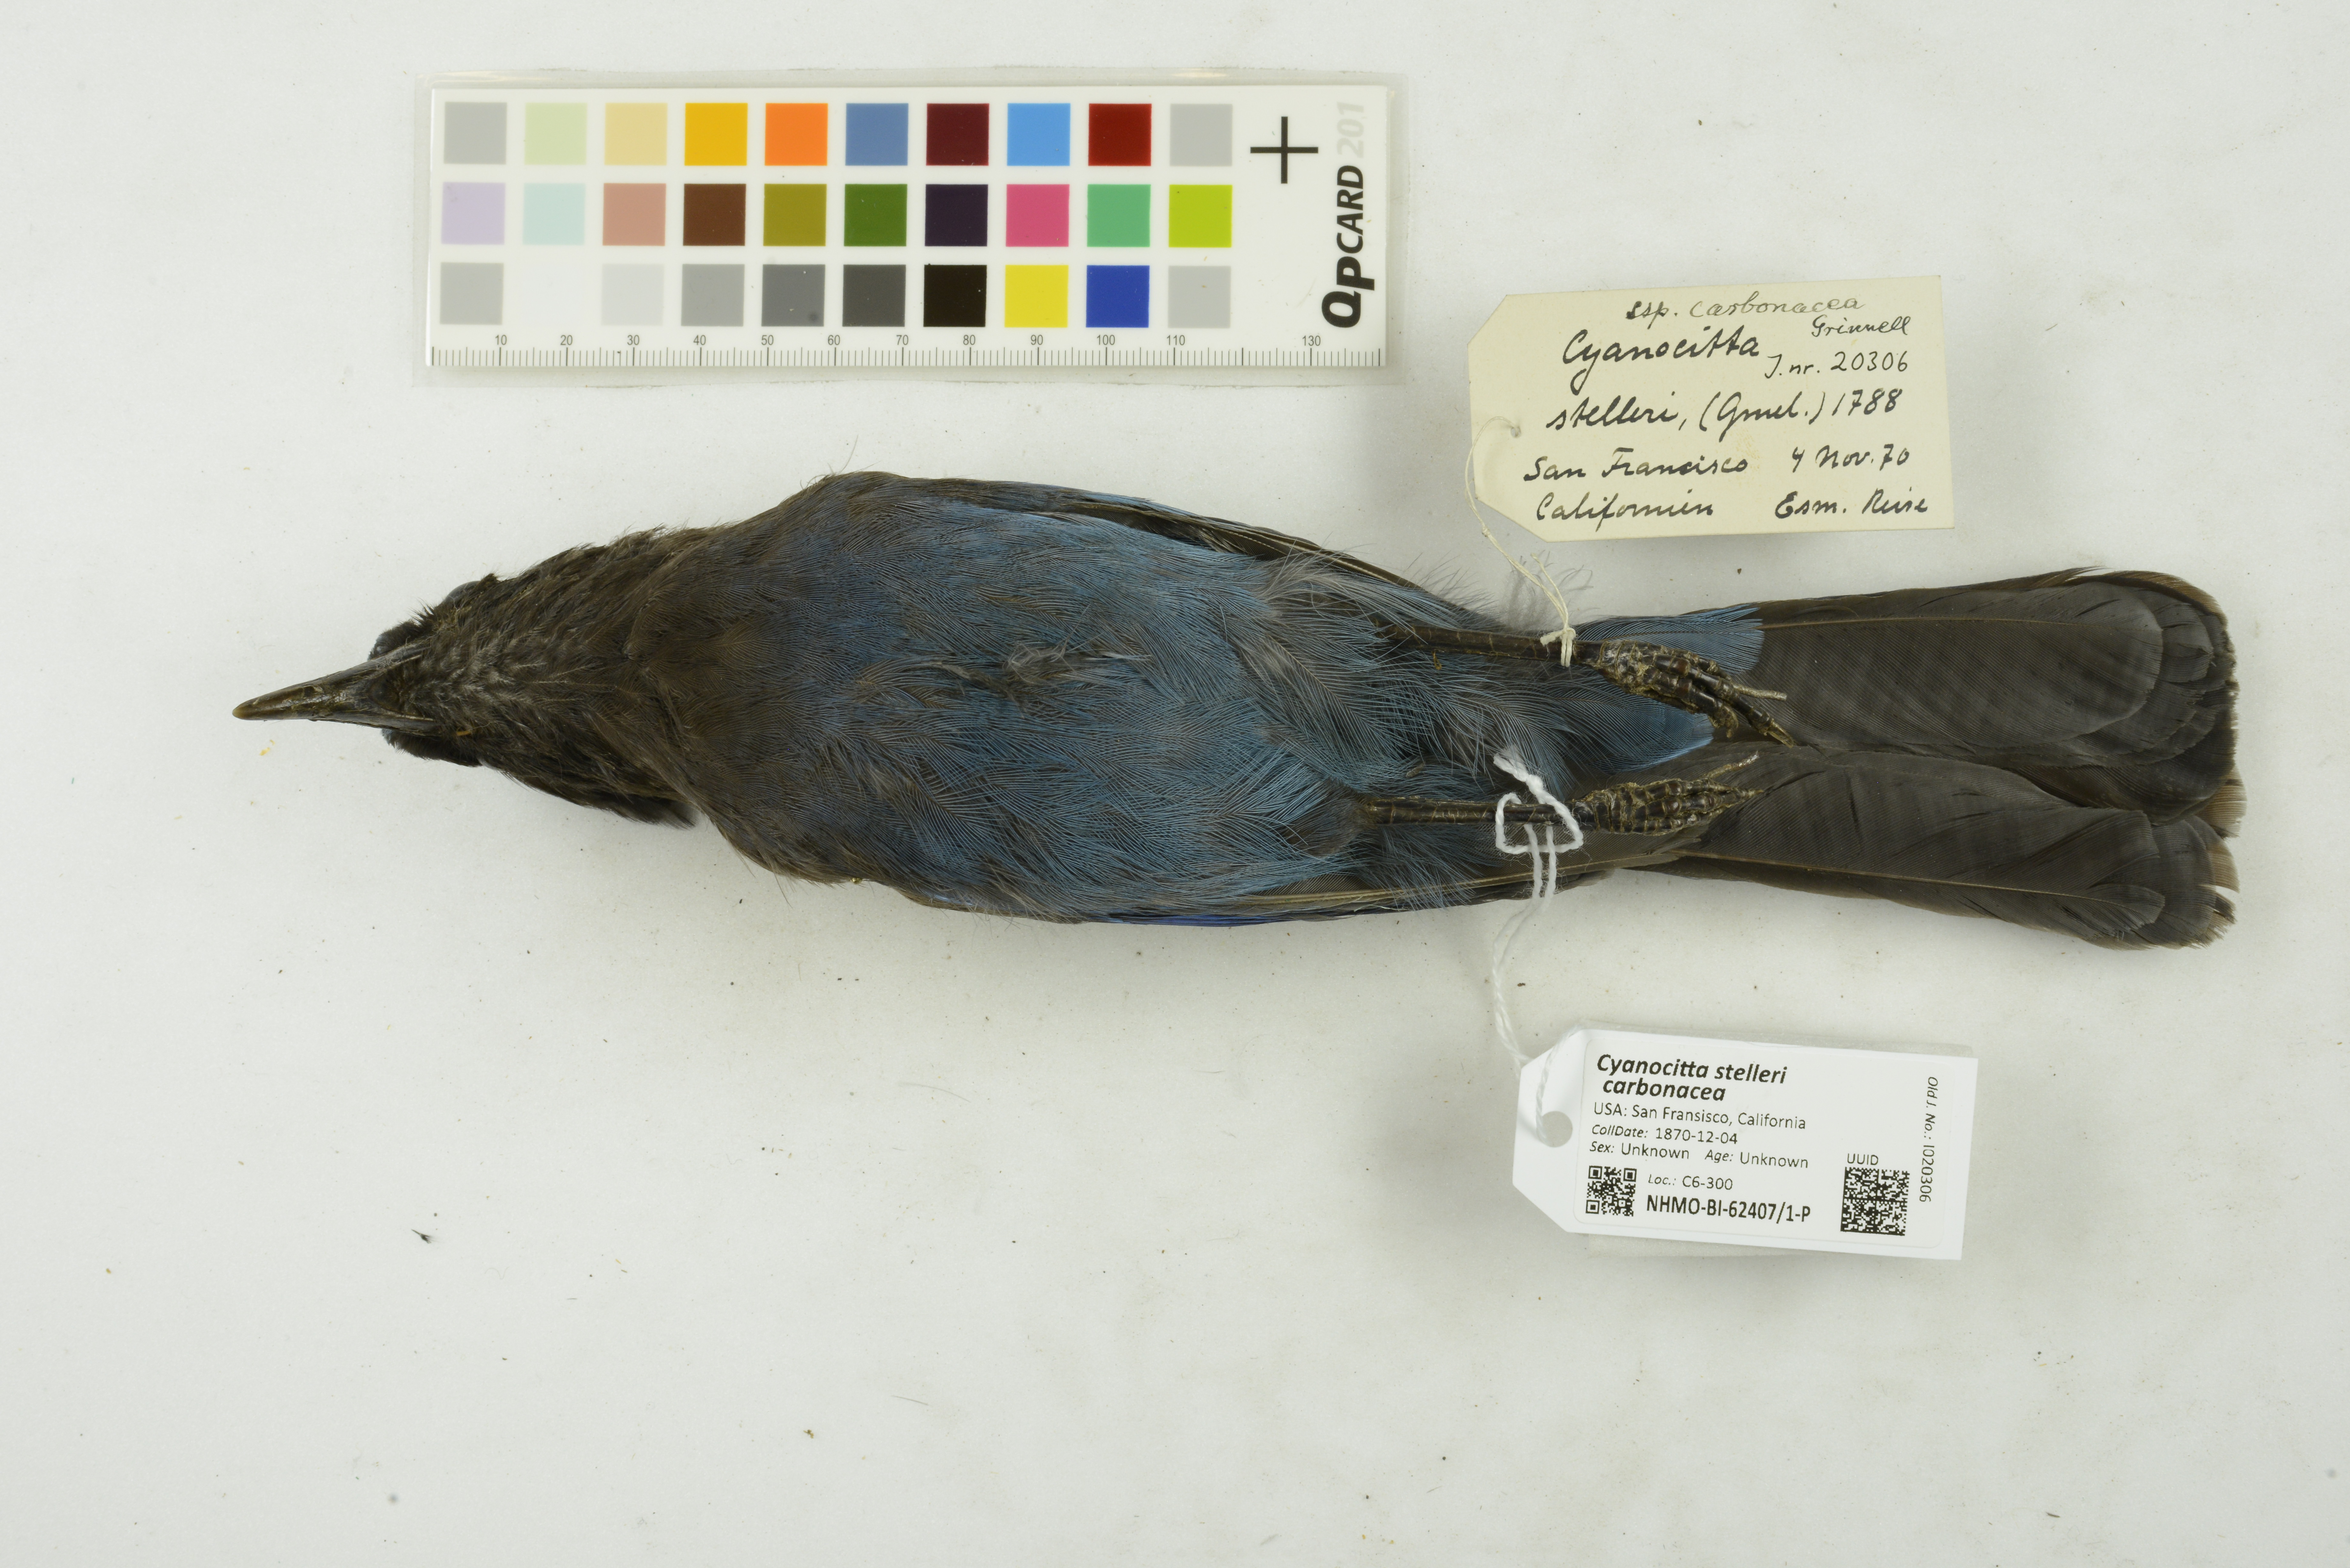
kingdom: Animalia
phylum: Chordata
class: Aves
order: Passeriformes
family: Corvidae
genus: Cyanocitta
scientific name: Cyanocitta stelleri
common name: Steller's jay
